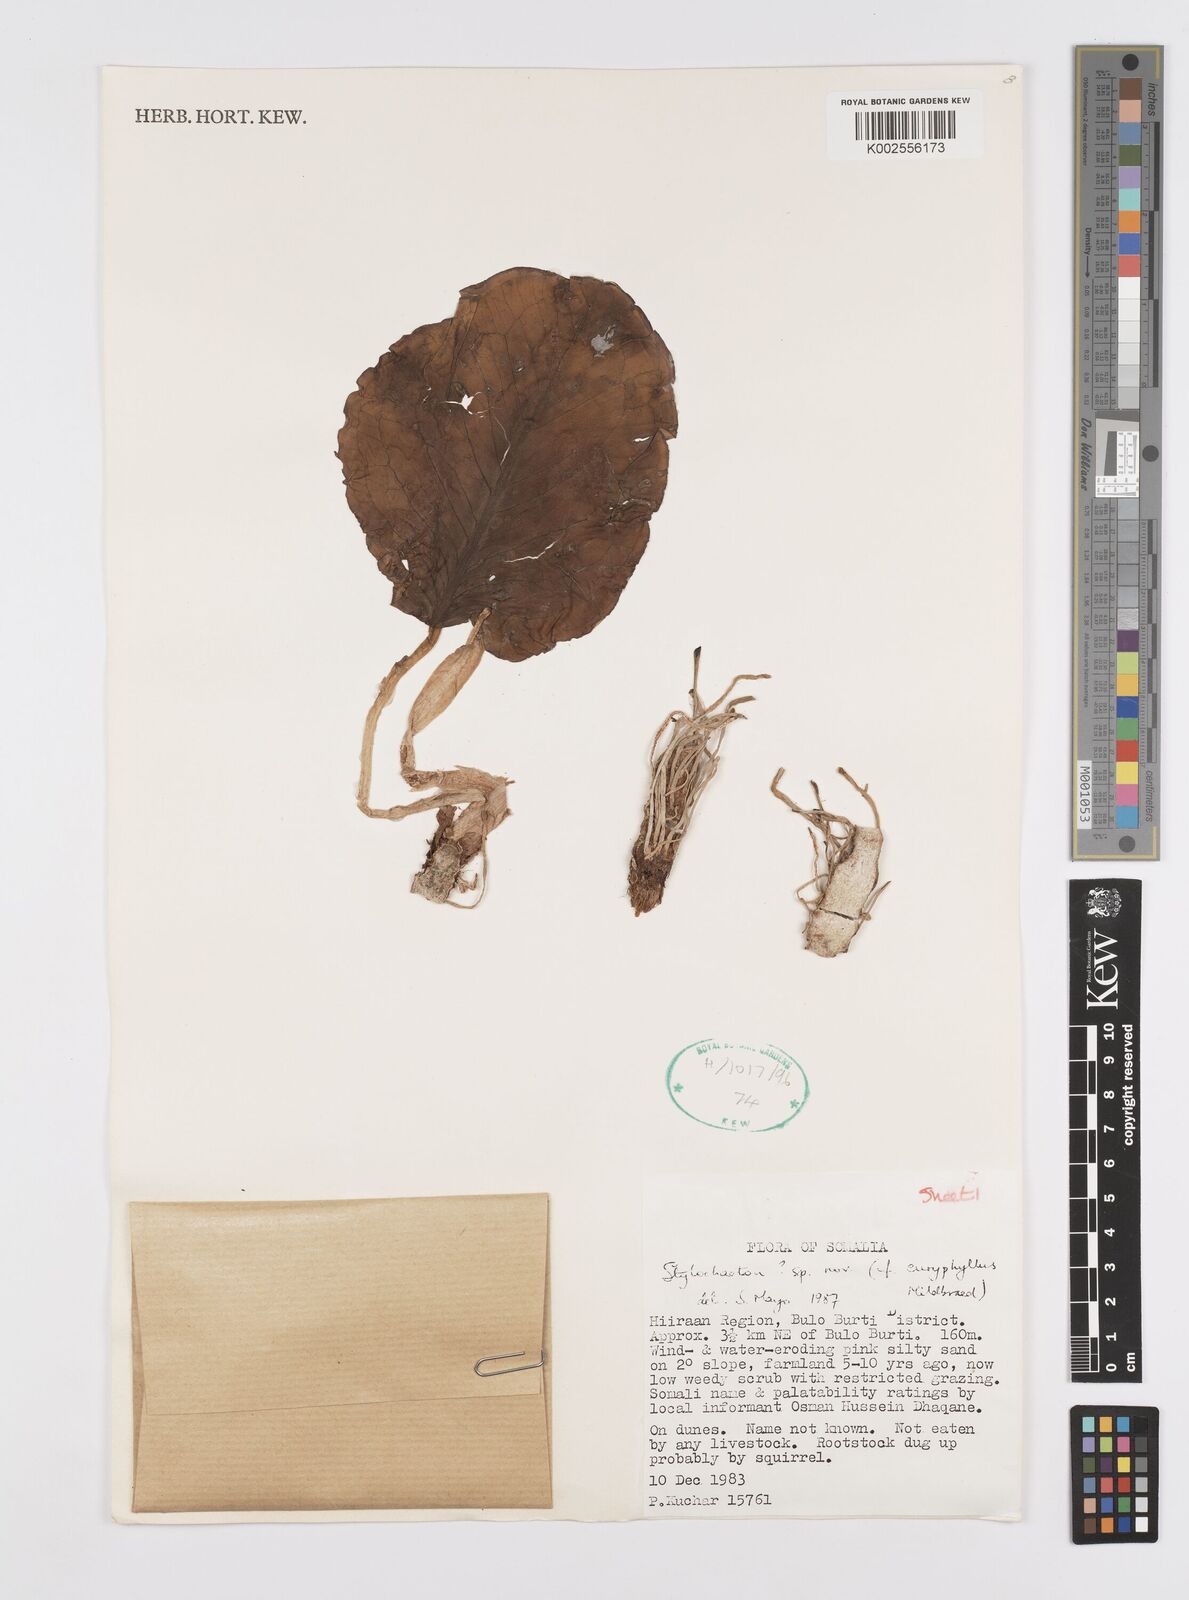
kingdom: Plantae
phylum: Tracheophyta
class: Liliopsida
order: Alismatales
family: Araceae
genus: Stylochaeton
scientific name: Stylochaeton
